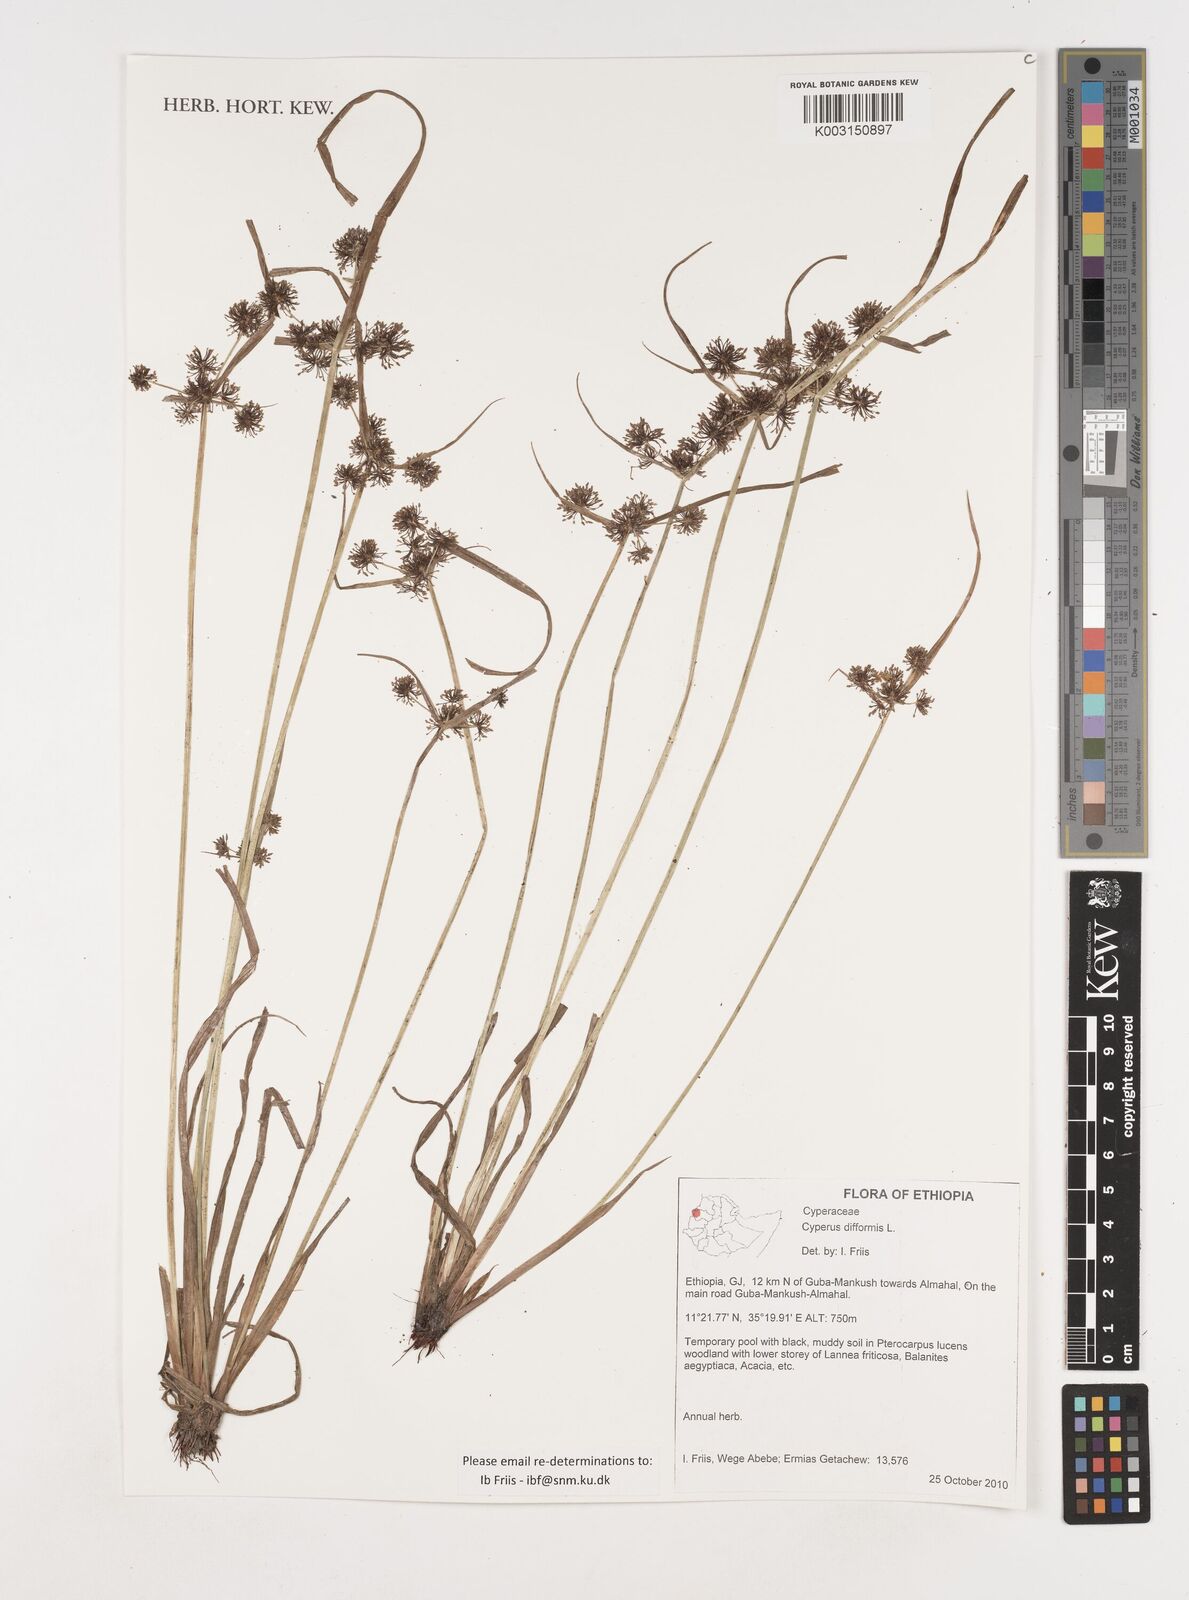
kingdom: Plantae
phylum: Tracheophyta
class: Liliopsida
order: Poales
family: Cyperaceae
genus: Cyperus
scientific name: Cyperus difformis
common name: Variable flatsedge
